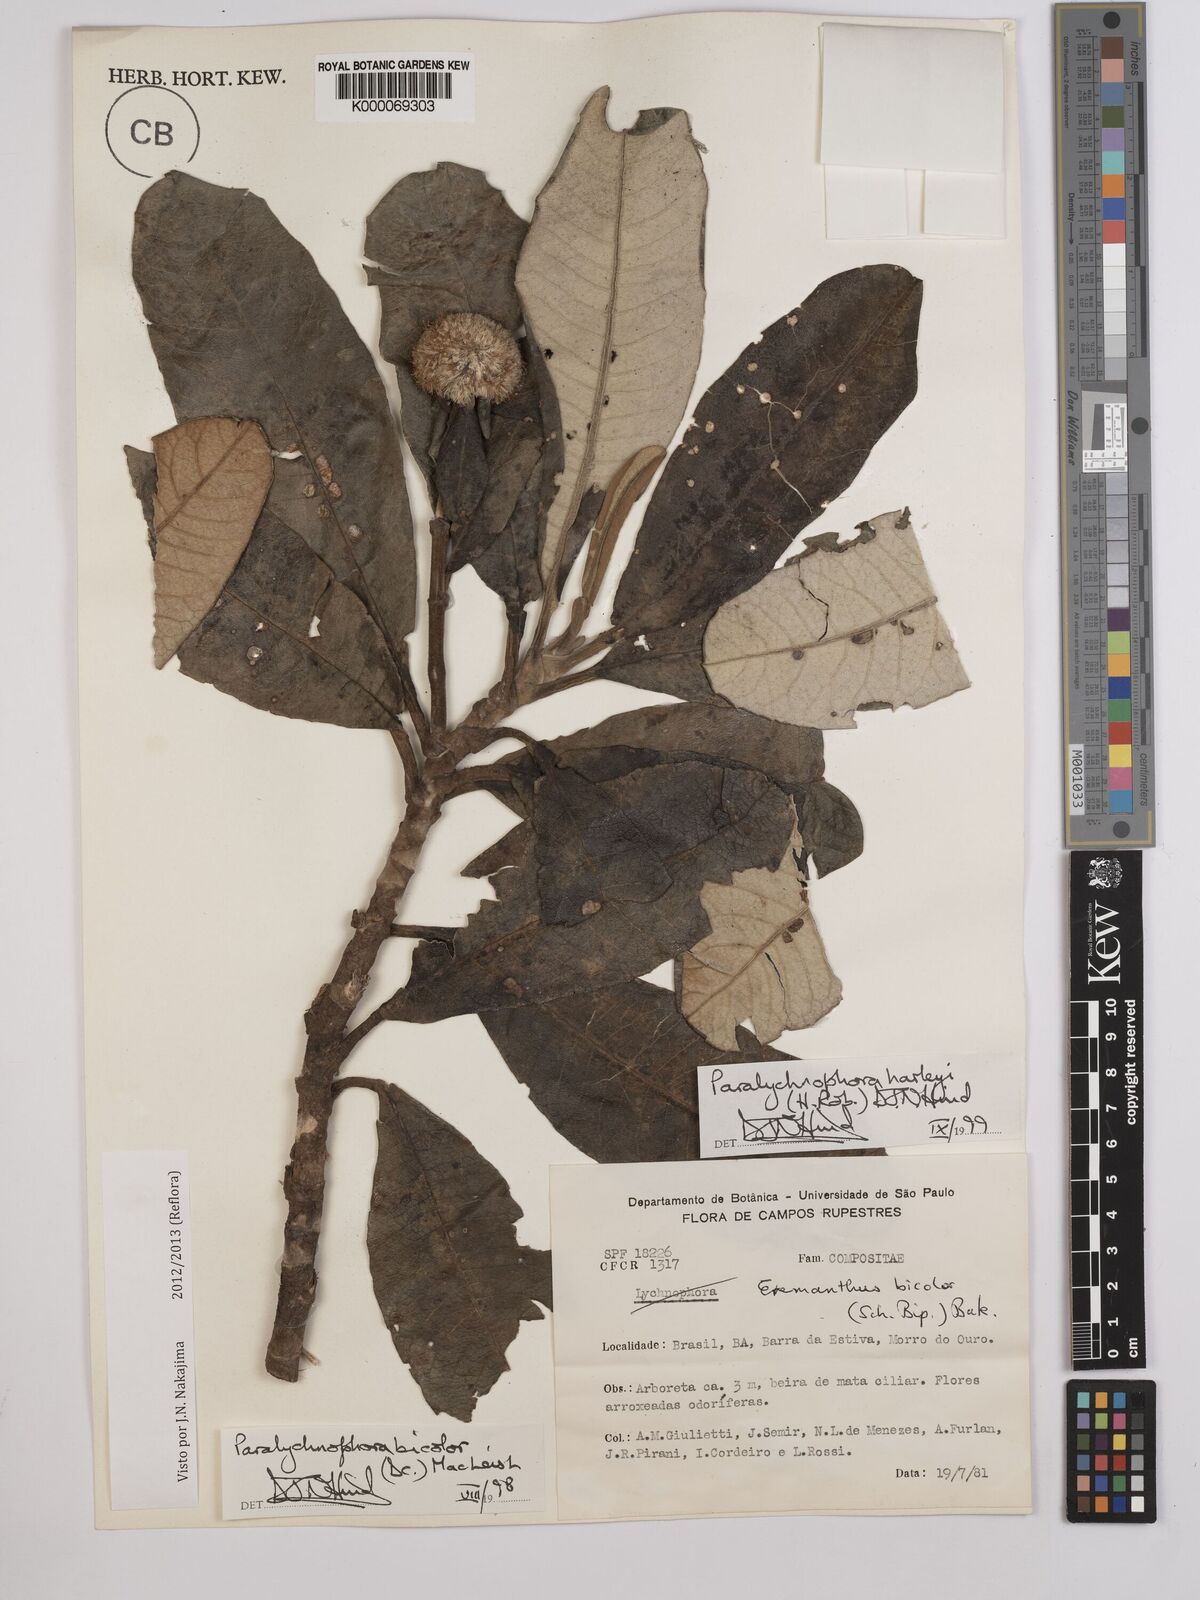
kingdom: Plantae
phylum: Tracheophyta
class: Magnoliopsida
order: Asterales
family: Asteraceae
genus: Paralychnophora
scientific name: Paralychnophora harleyi
